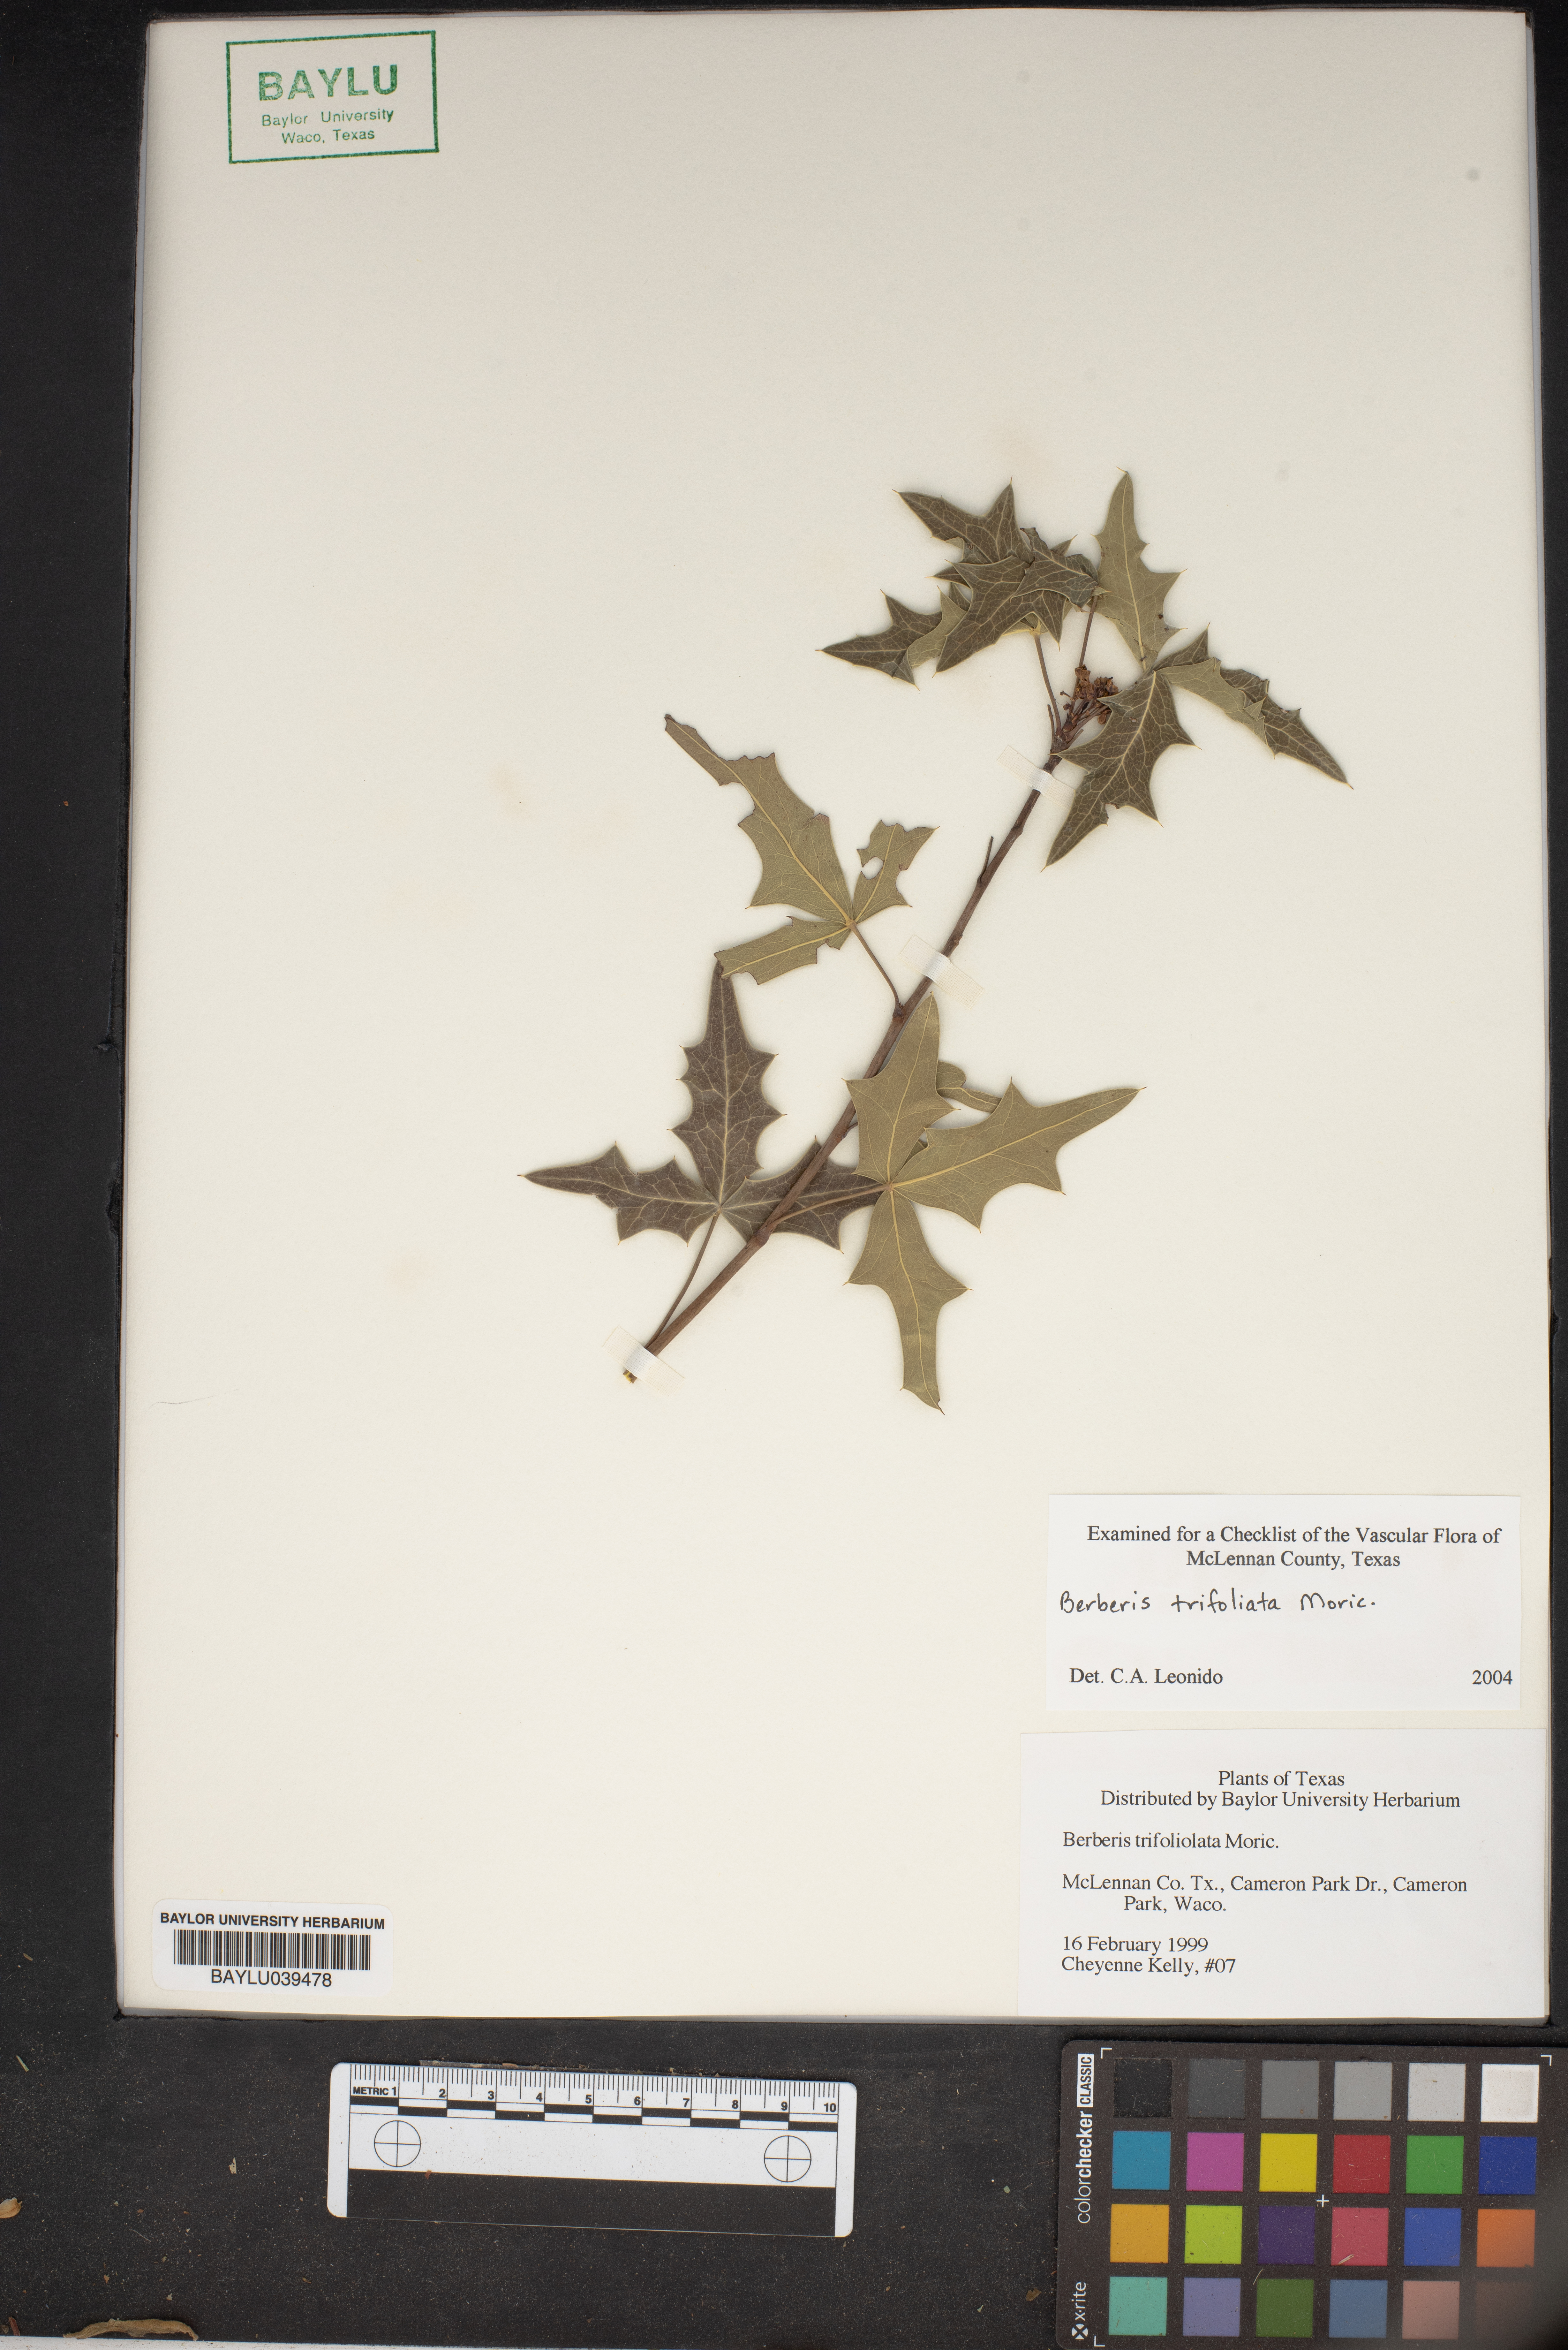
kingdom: Plantae
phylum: Tracheophyta
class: Magnoliopsida
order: Ranunculales
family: Berberidaceae
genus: Alloberberis
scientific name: Alloberberis fremontii
